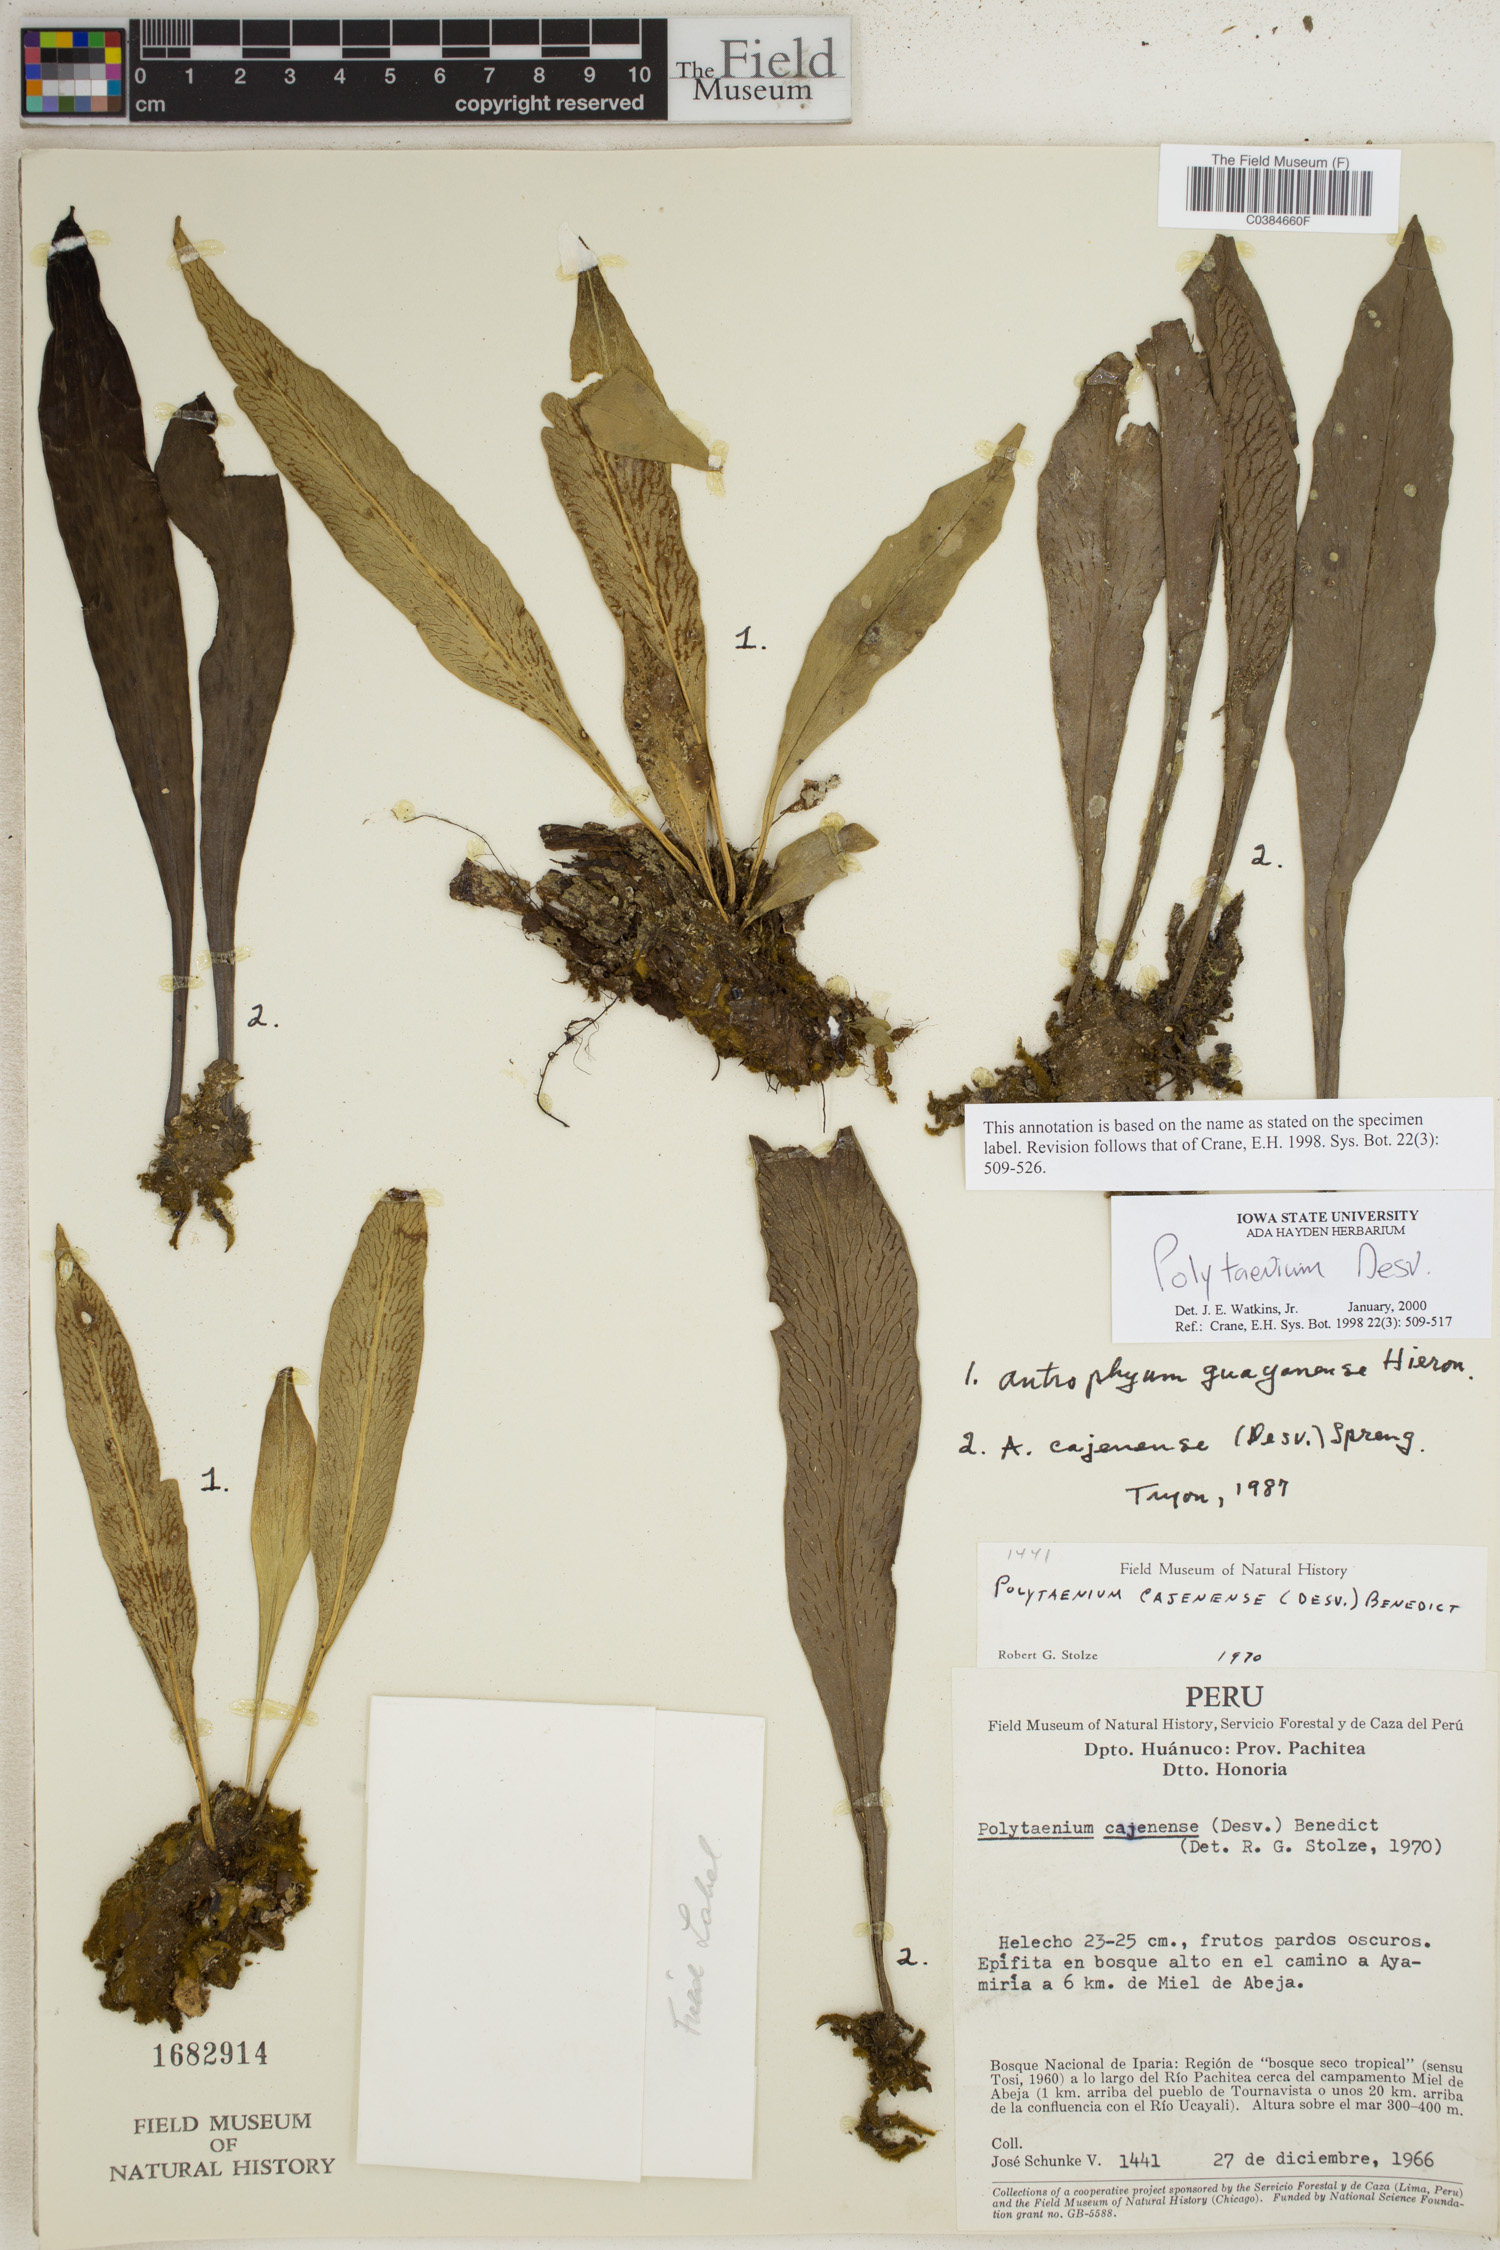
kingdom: Plantae
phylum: Tracheophyta
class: Polypodiopsida
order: Polypodiales
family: Pteridaceae
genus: Polytaenium
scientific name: Polytaenium
